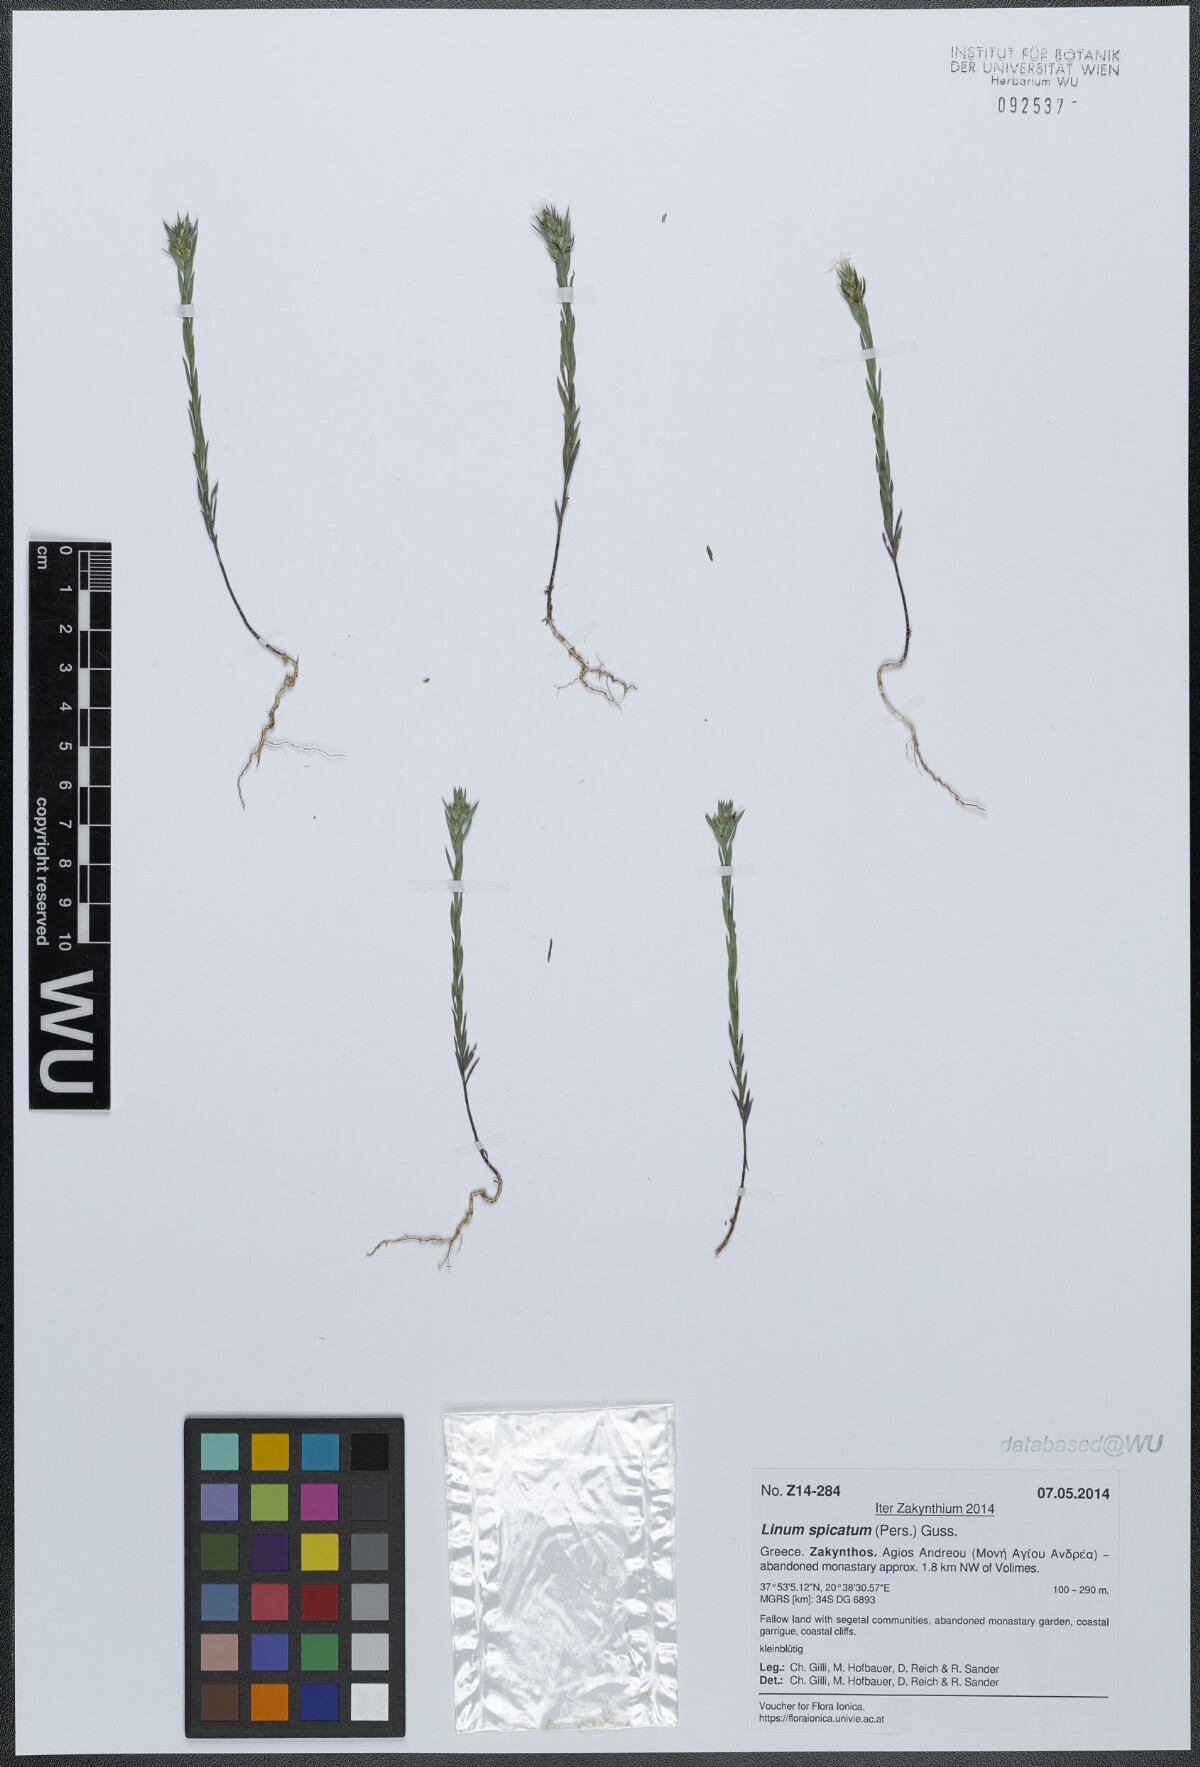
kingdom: Plantae
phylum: Tracheophyta
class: Magnoliopsida
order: Malpighiales
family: Linaceae
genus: Linum
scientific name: Linum strictum
